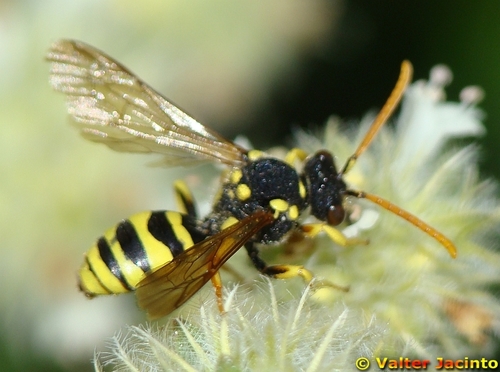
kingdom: Animalia
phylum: Arthropoda
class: Insecta
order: Hymenoptera
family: Apidae
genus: Nomada
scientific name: Nomada succincta
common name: Yellow-legged nomad bee
